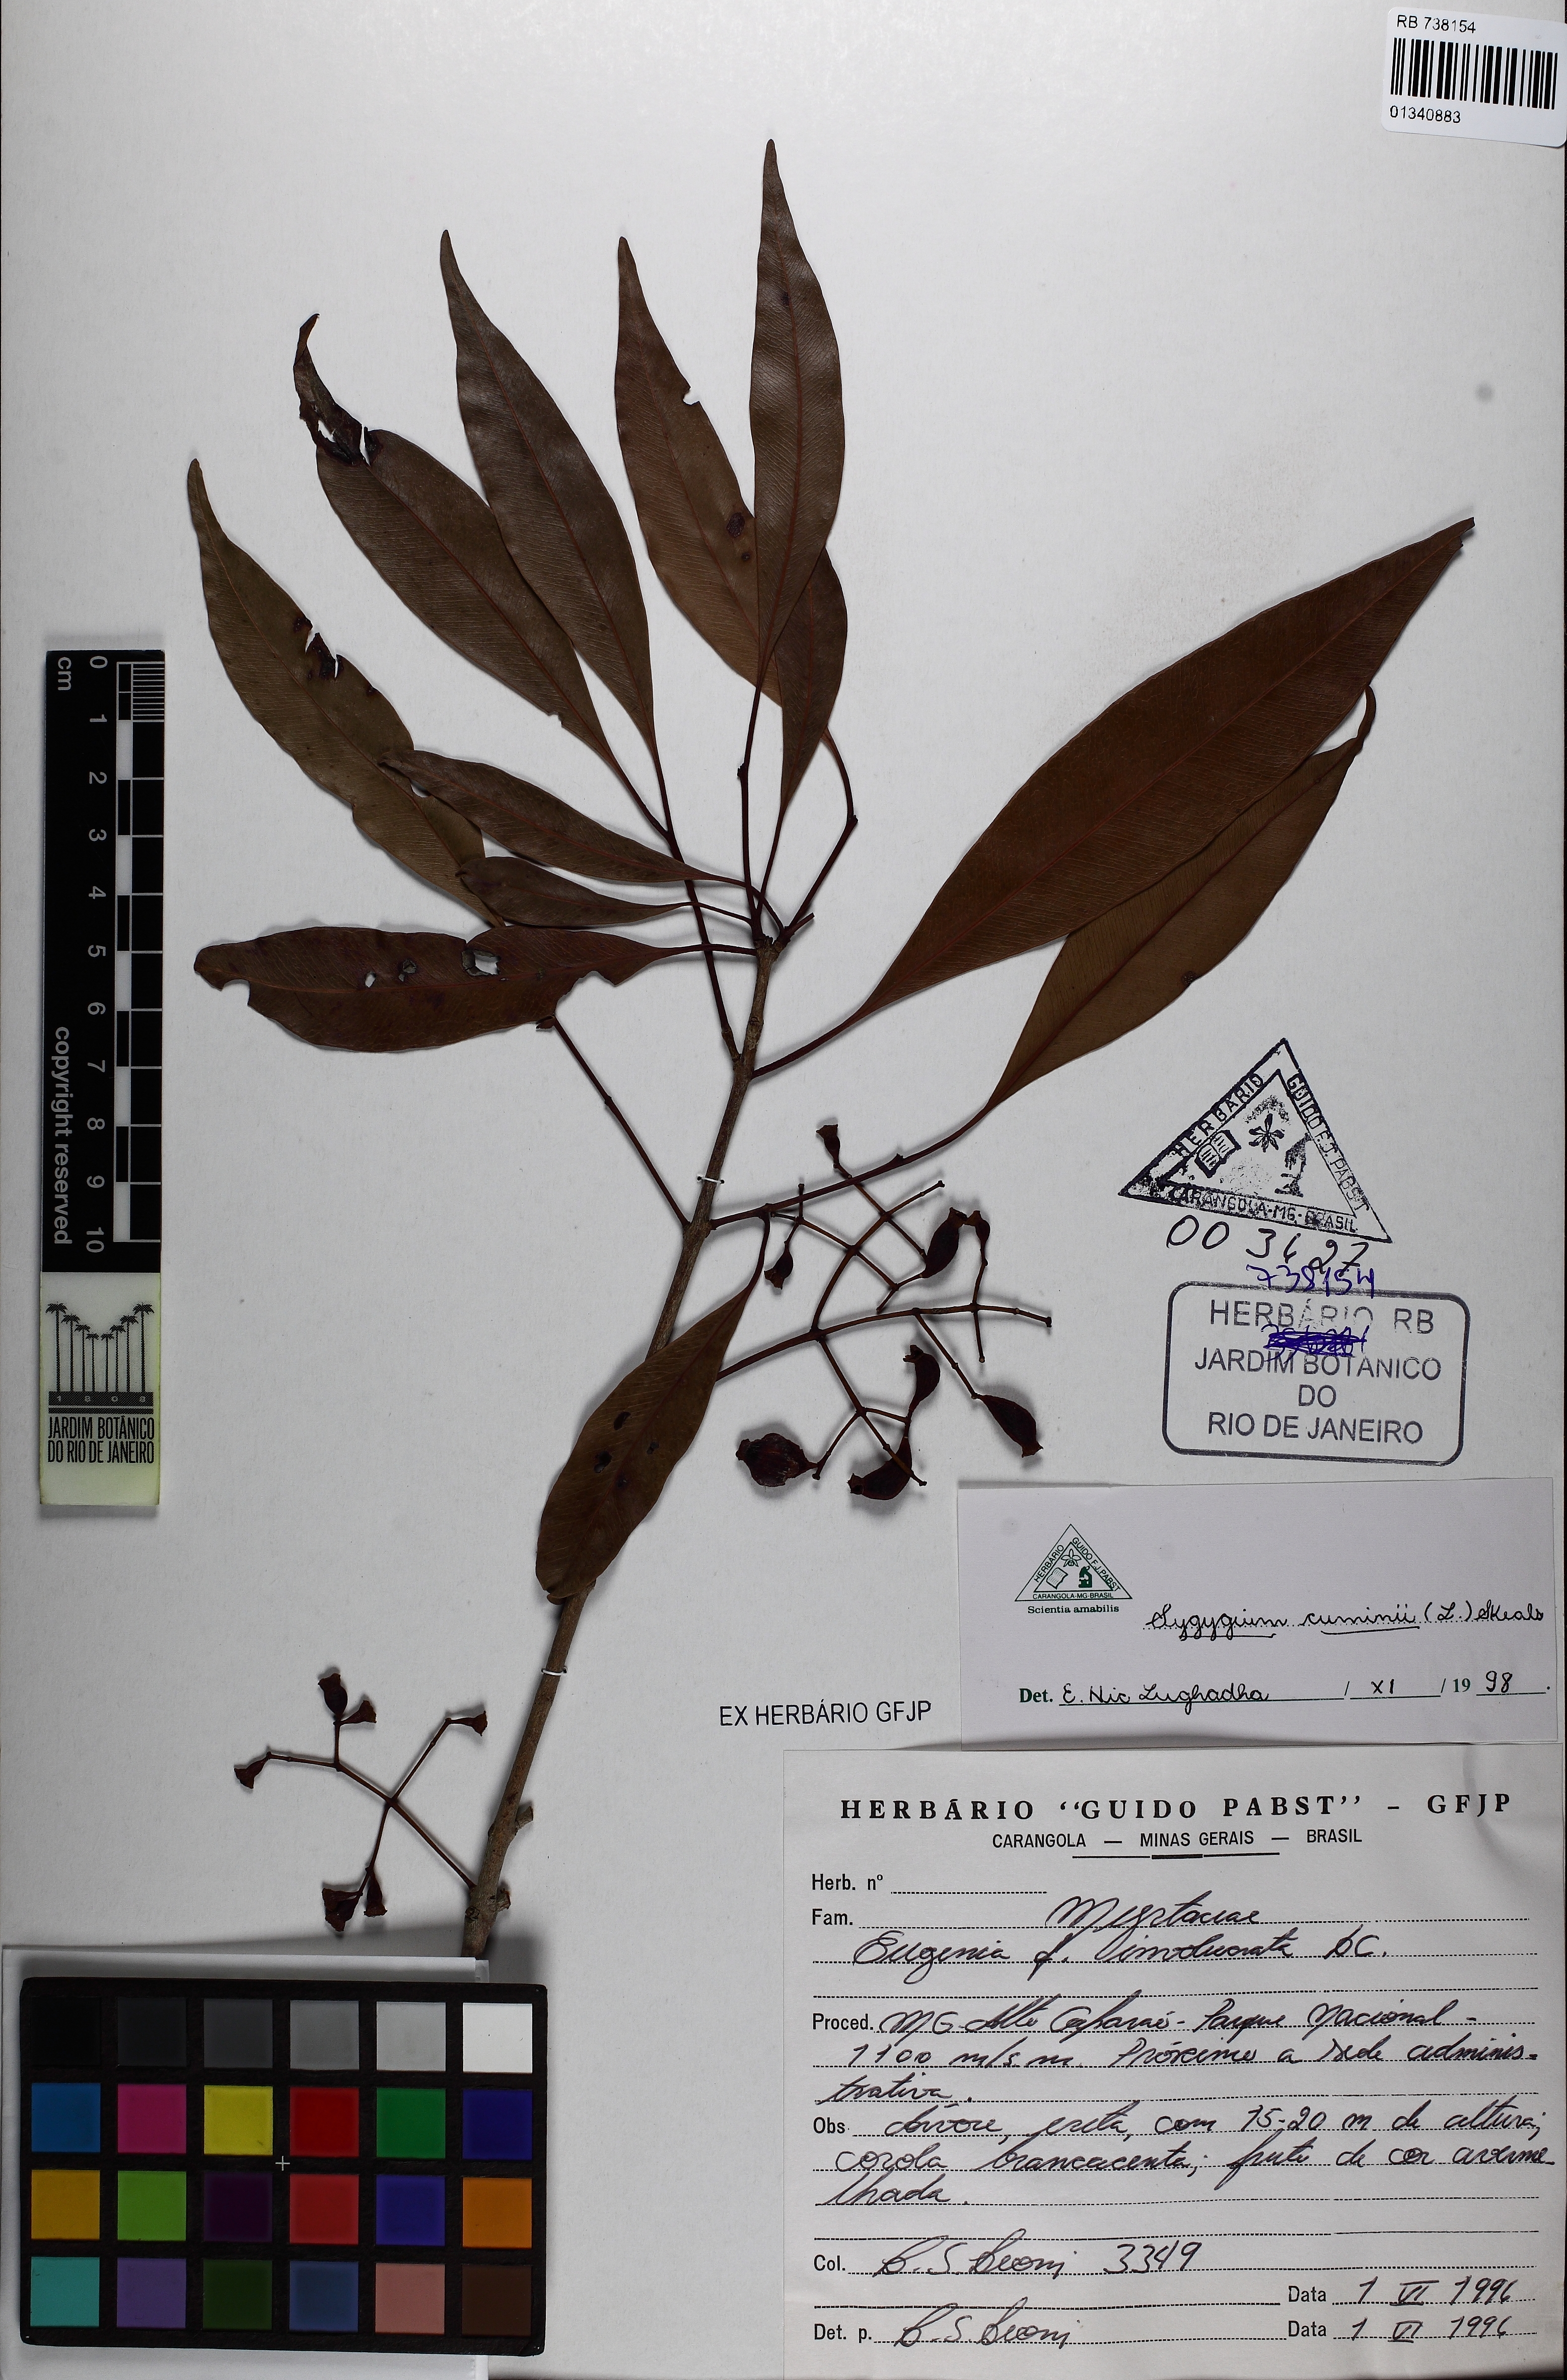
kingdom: Plantae
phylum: Tracheophyta
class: Magnoliopsida
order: Myrtales
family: Myrtaceae
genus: Syzygium
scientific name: Syzygium cumini
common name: Java plum
